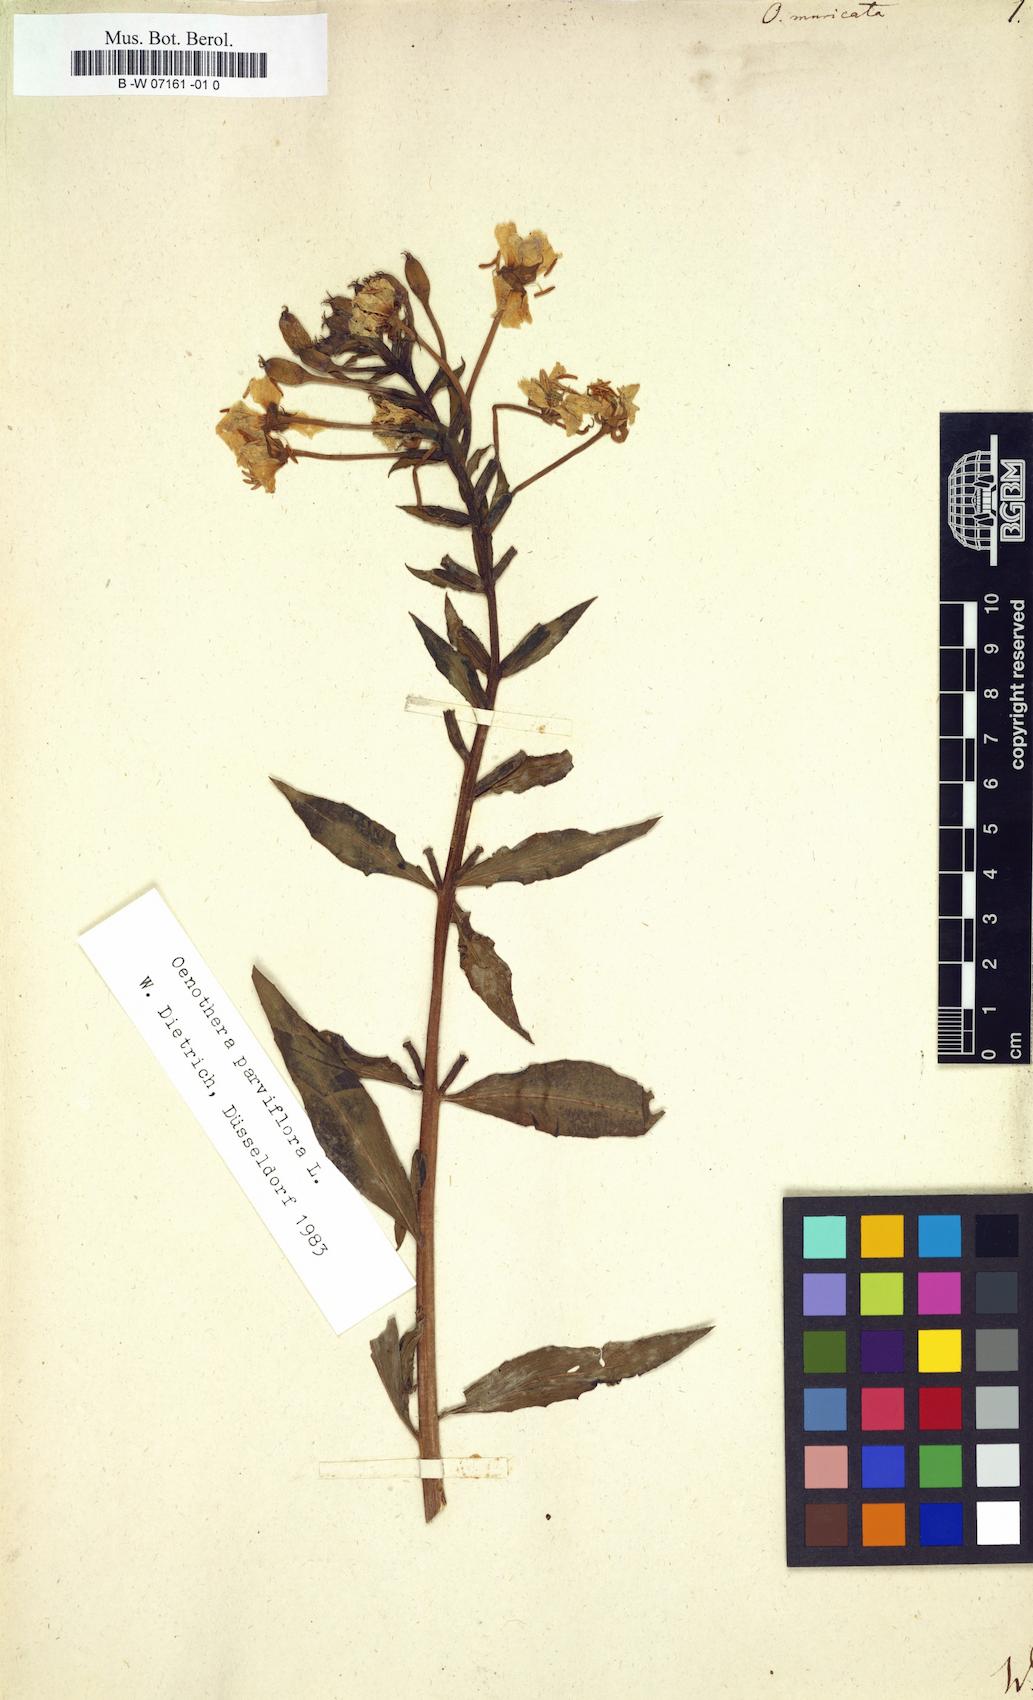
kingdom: Plantae
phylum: Tracheophyta
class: Magnoliopsida
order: Myrtales
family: Onagraceae
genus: Oenothera
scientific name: Oenothera biennis
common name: Common evening-primrose
